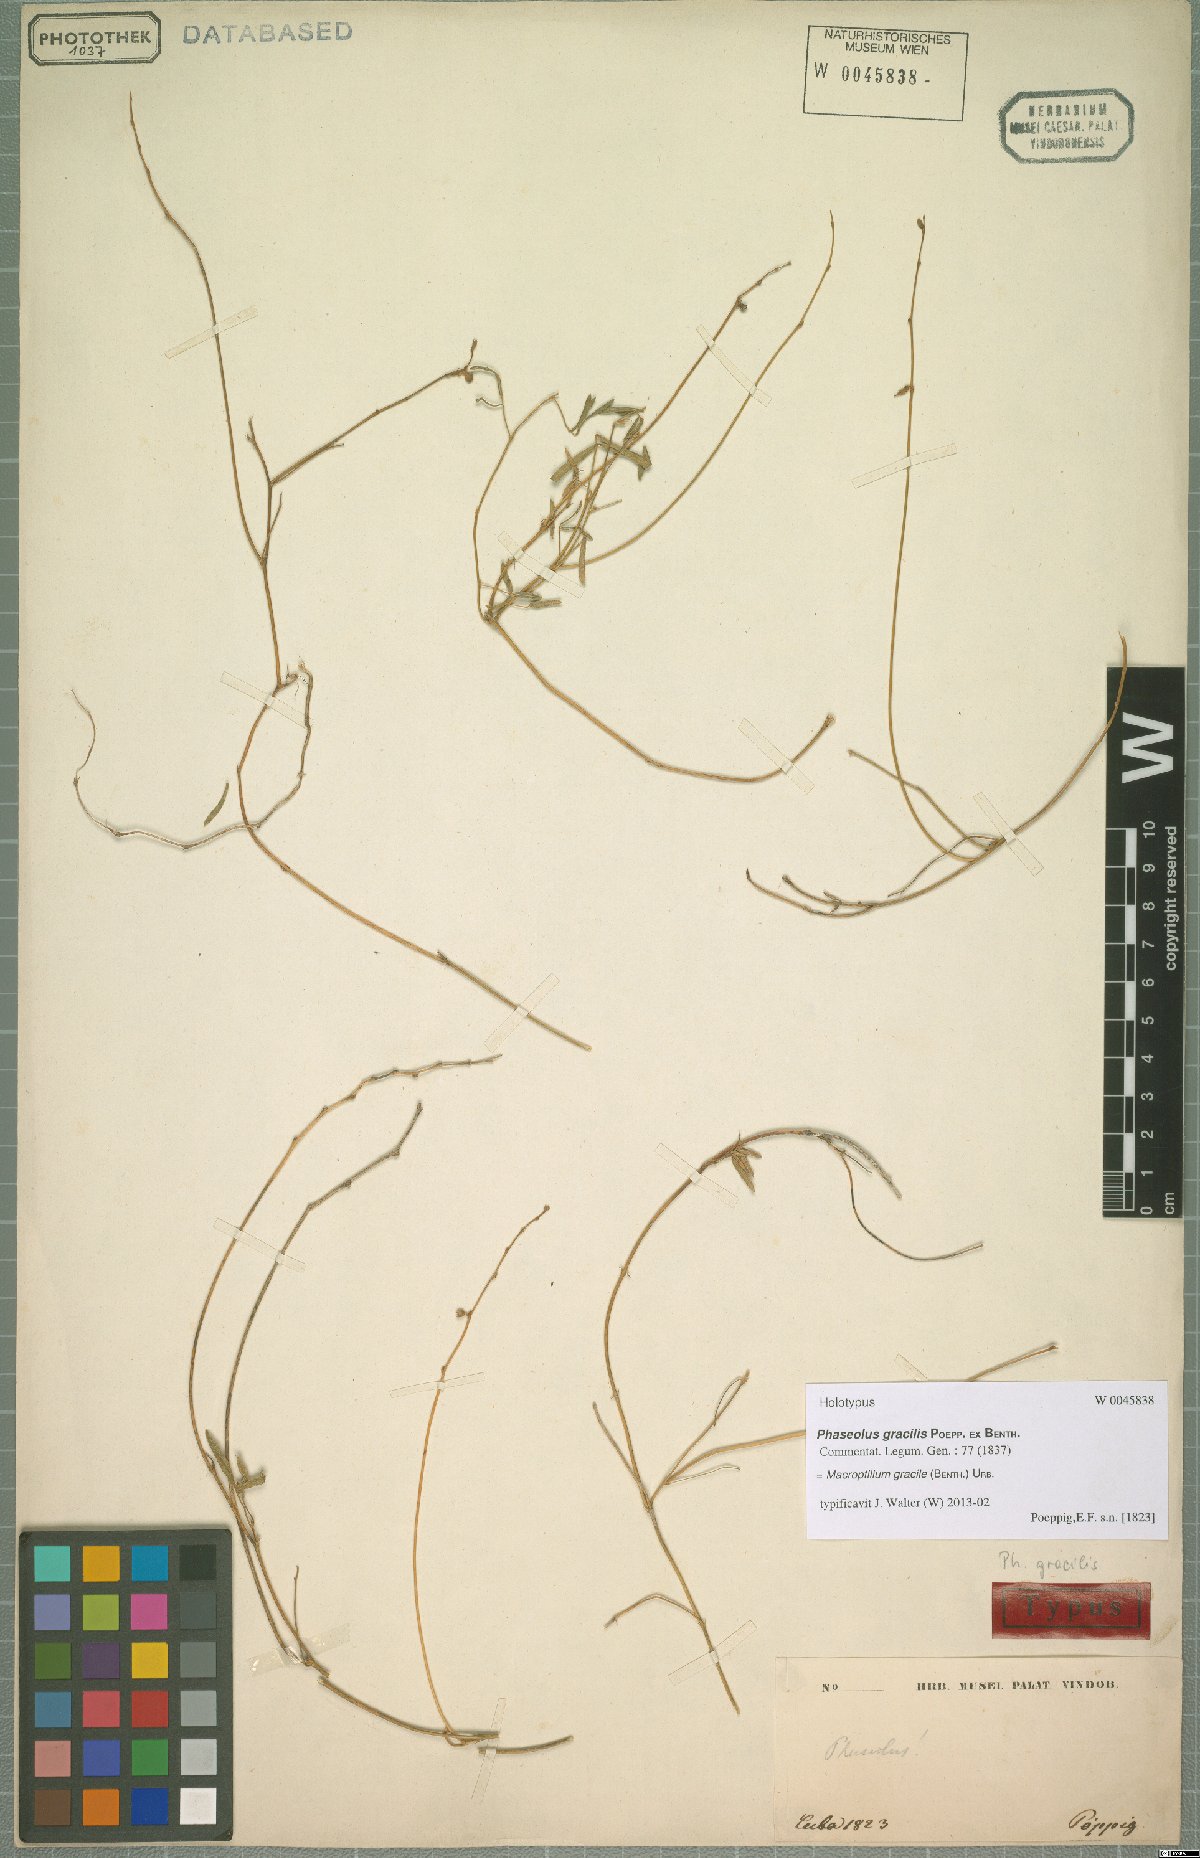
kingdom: Plantae
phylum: Tracheophyta
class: Magnoliopsida
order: Fabales
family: Fabaceae
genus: Macroptilium
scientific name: Macroptilium gracile
